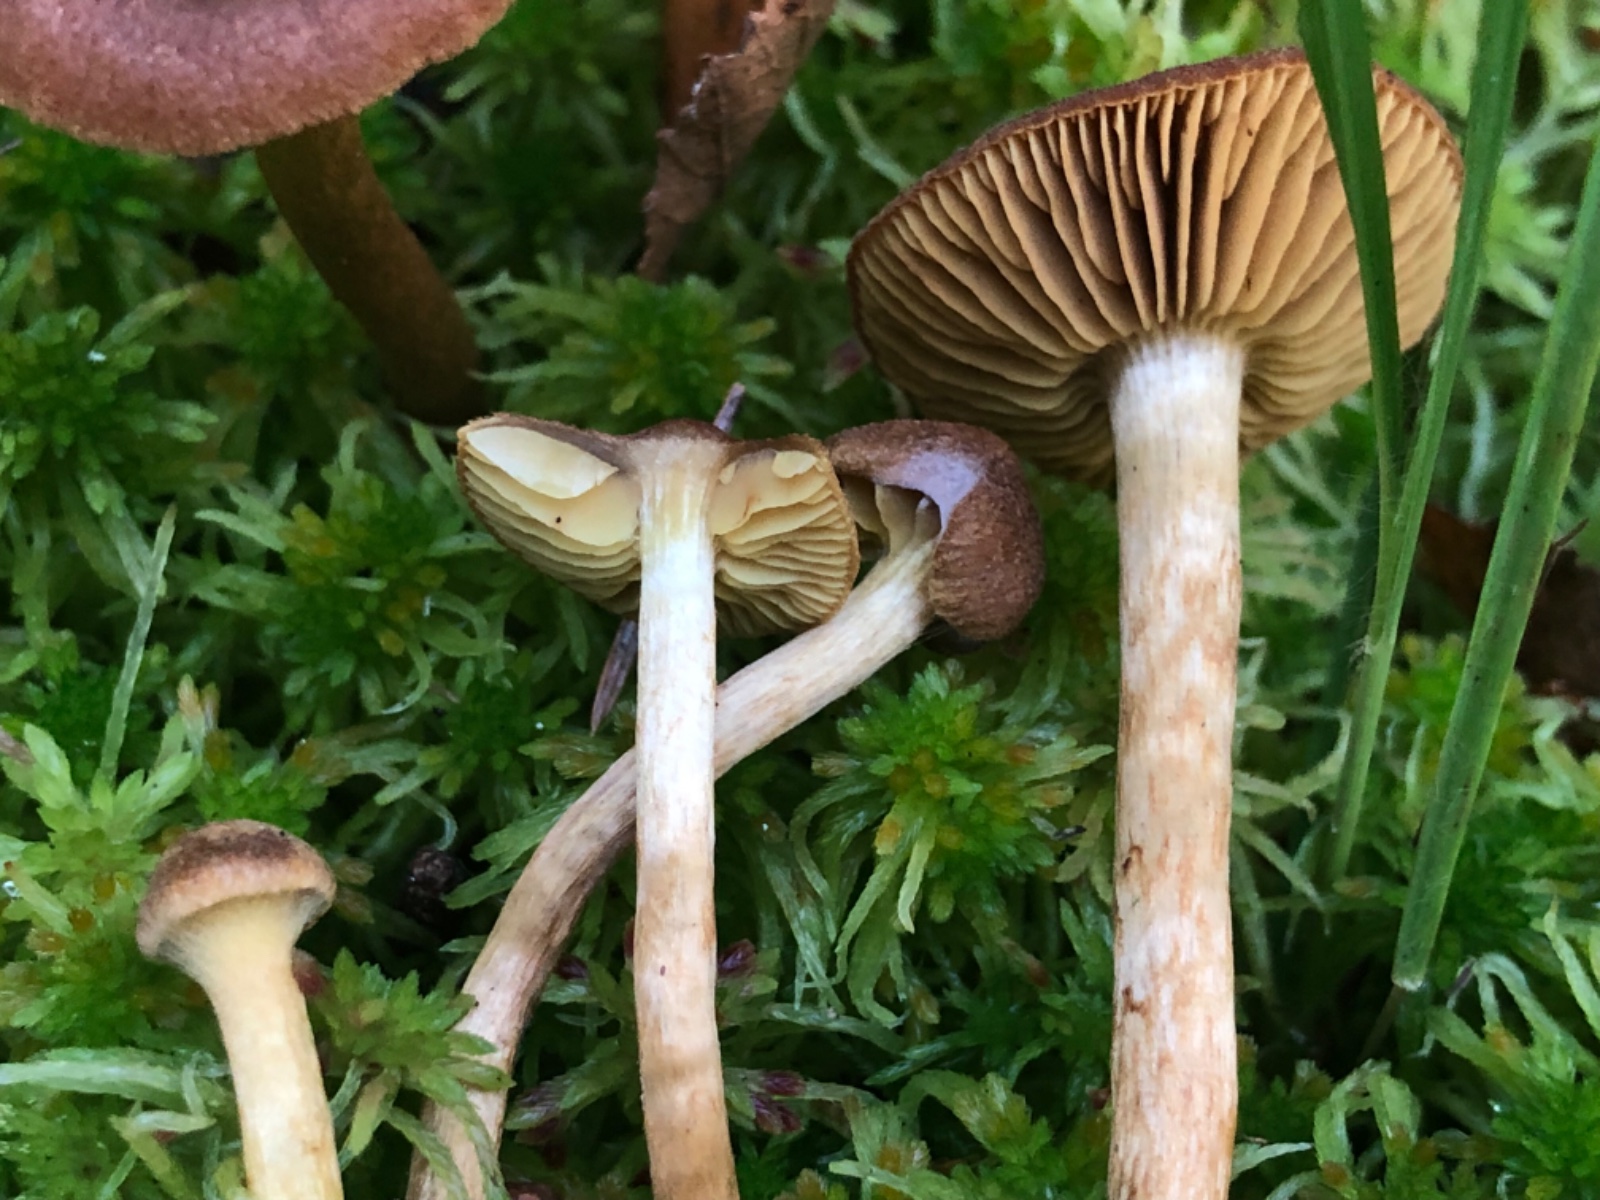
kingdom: Fungi
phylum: Basidiomycota
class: Agaricomycetes
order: Agaricales
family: Cortinariaceae
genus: Cortinarius
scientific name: Cortinarius subfusipes
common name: højmose-slørhat
